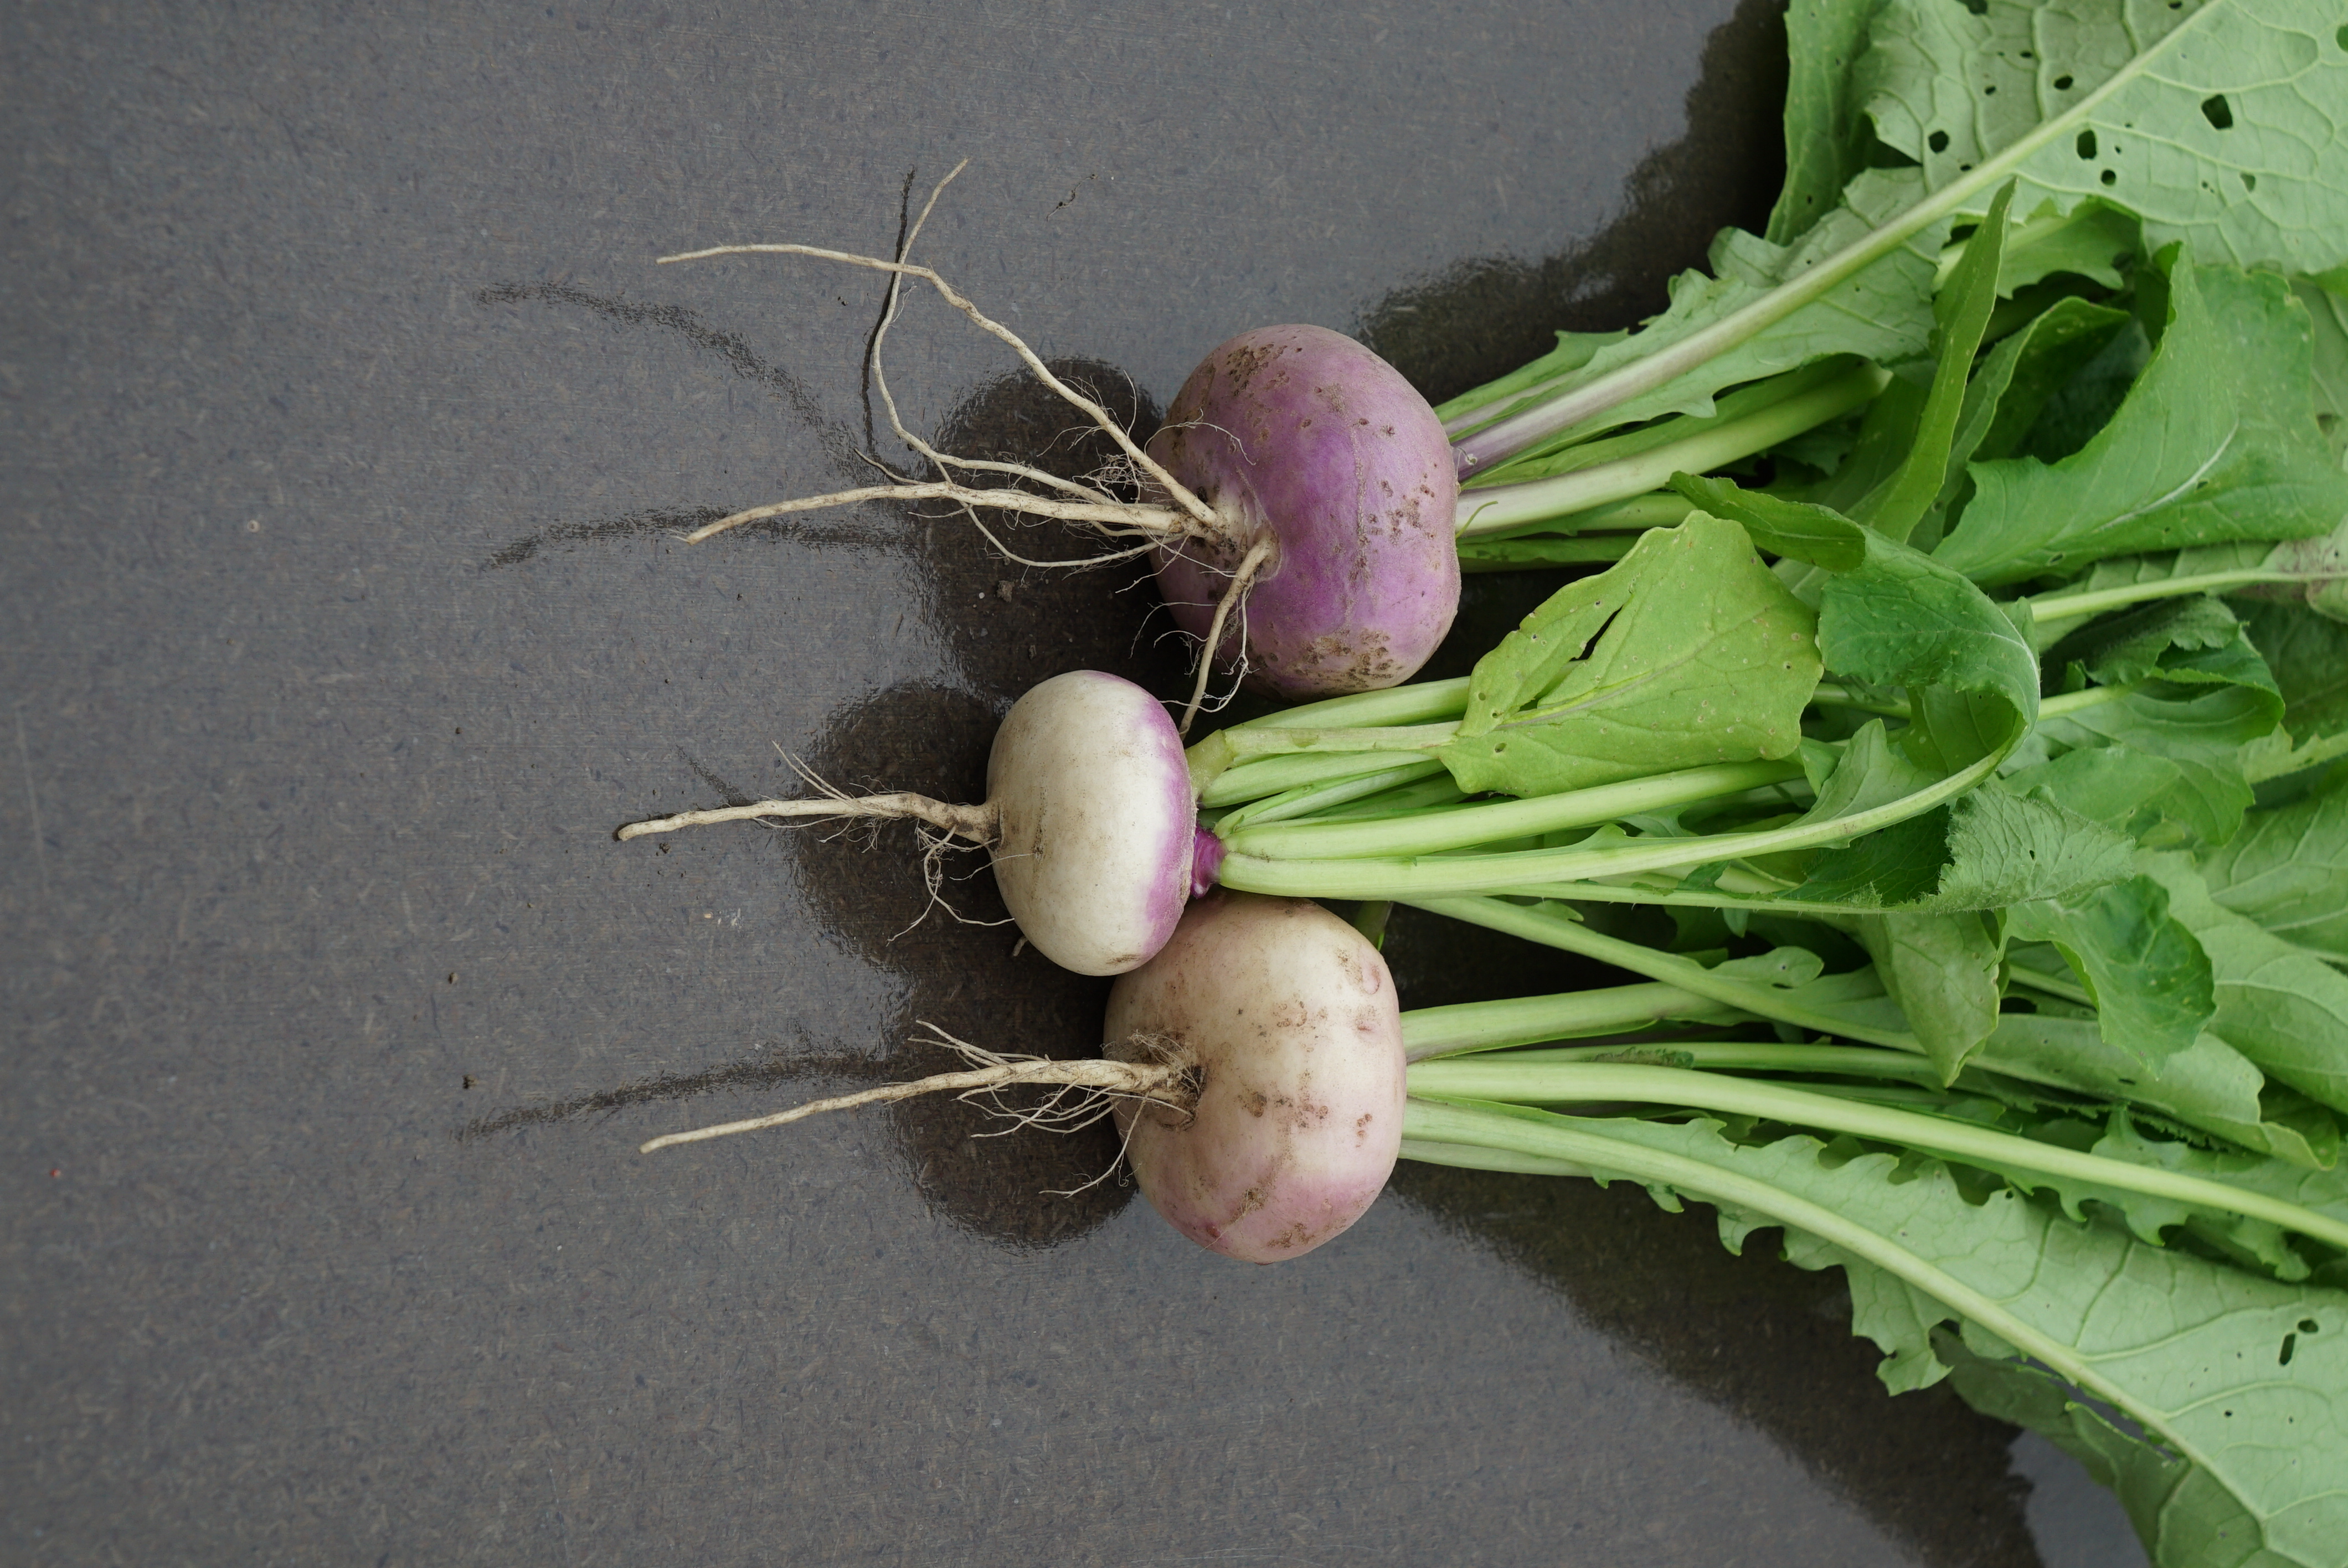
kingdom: Plantae
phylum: Tracheophyta
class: Magnoliopsida
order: Brassicales
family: Brassicaceae
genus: Brassica
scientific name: Brassica rapa
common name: Field mustard
